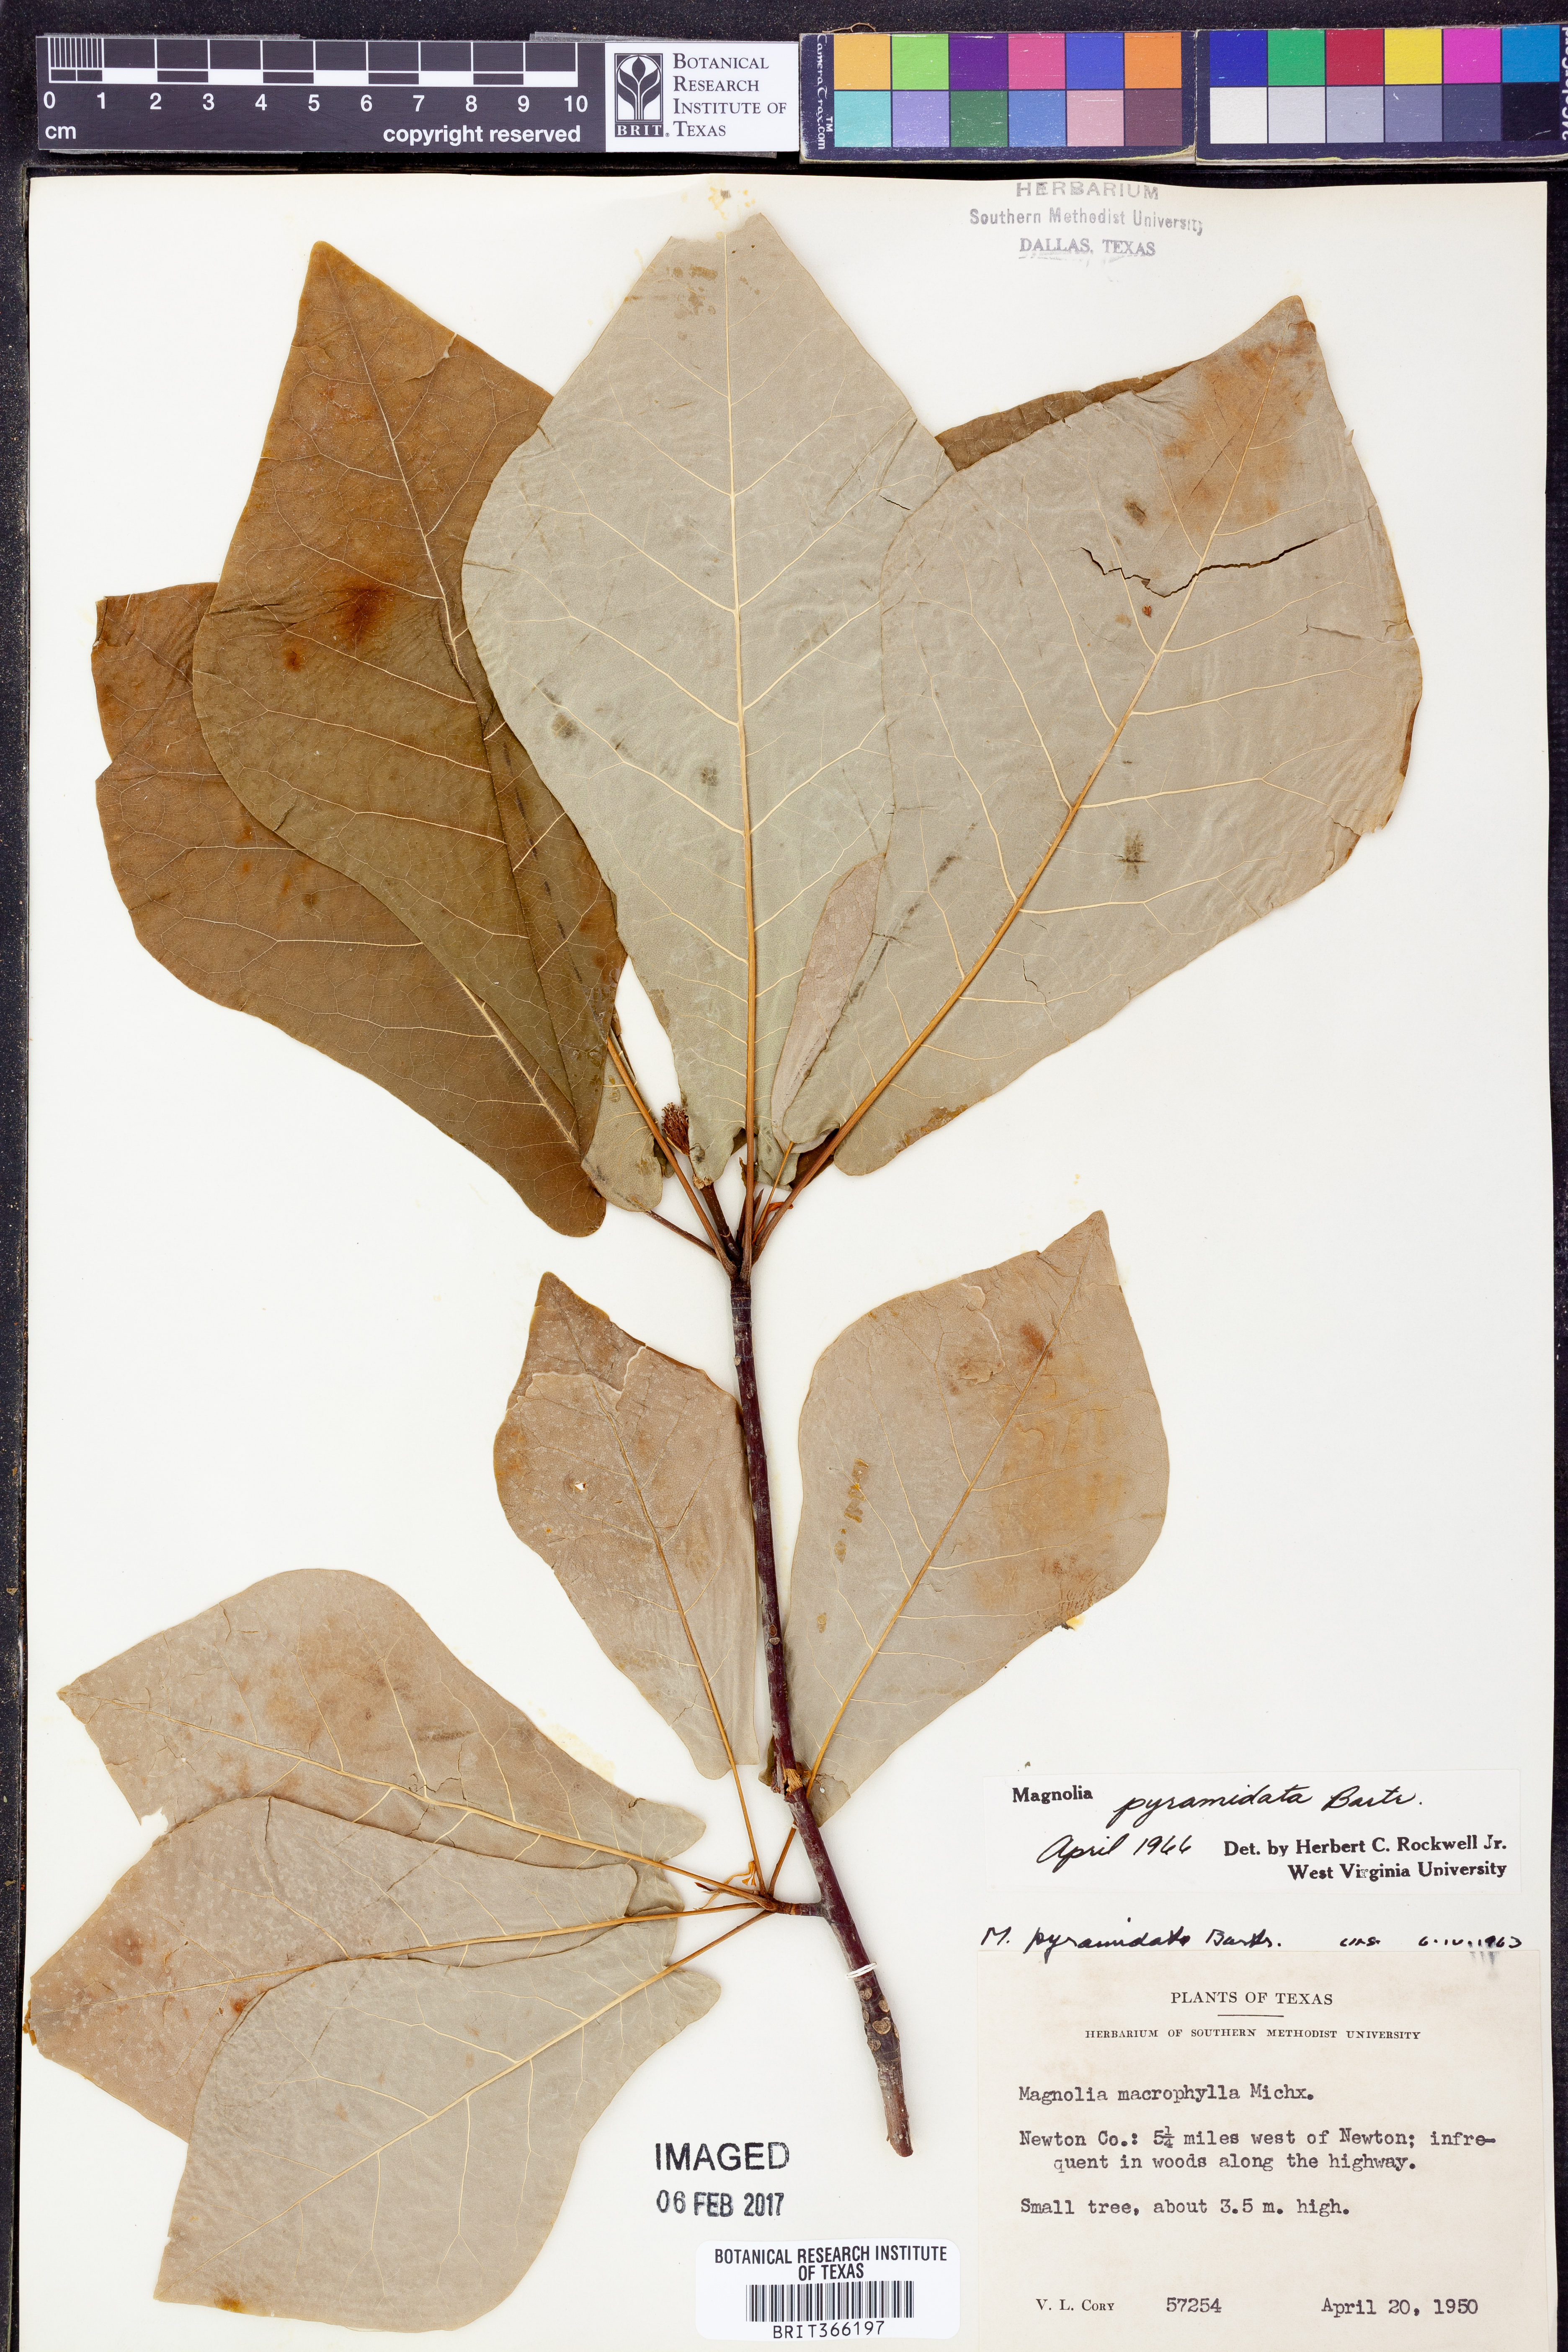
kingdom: Plantae
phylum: Tracheophyta
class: Magnoliopsida
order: Magnoliales
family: Magnoliaceae
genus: Magnolia
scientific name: Magnolia fraseri
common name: Fraser's magnolia
